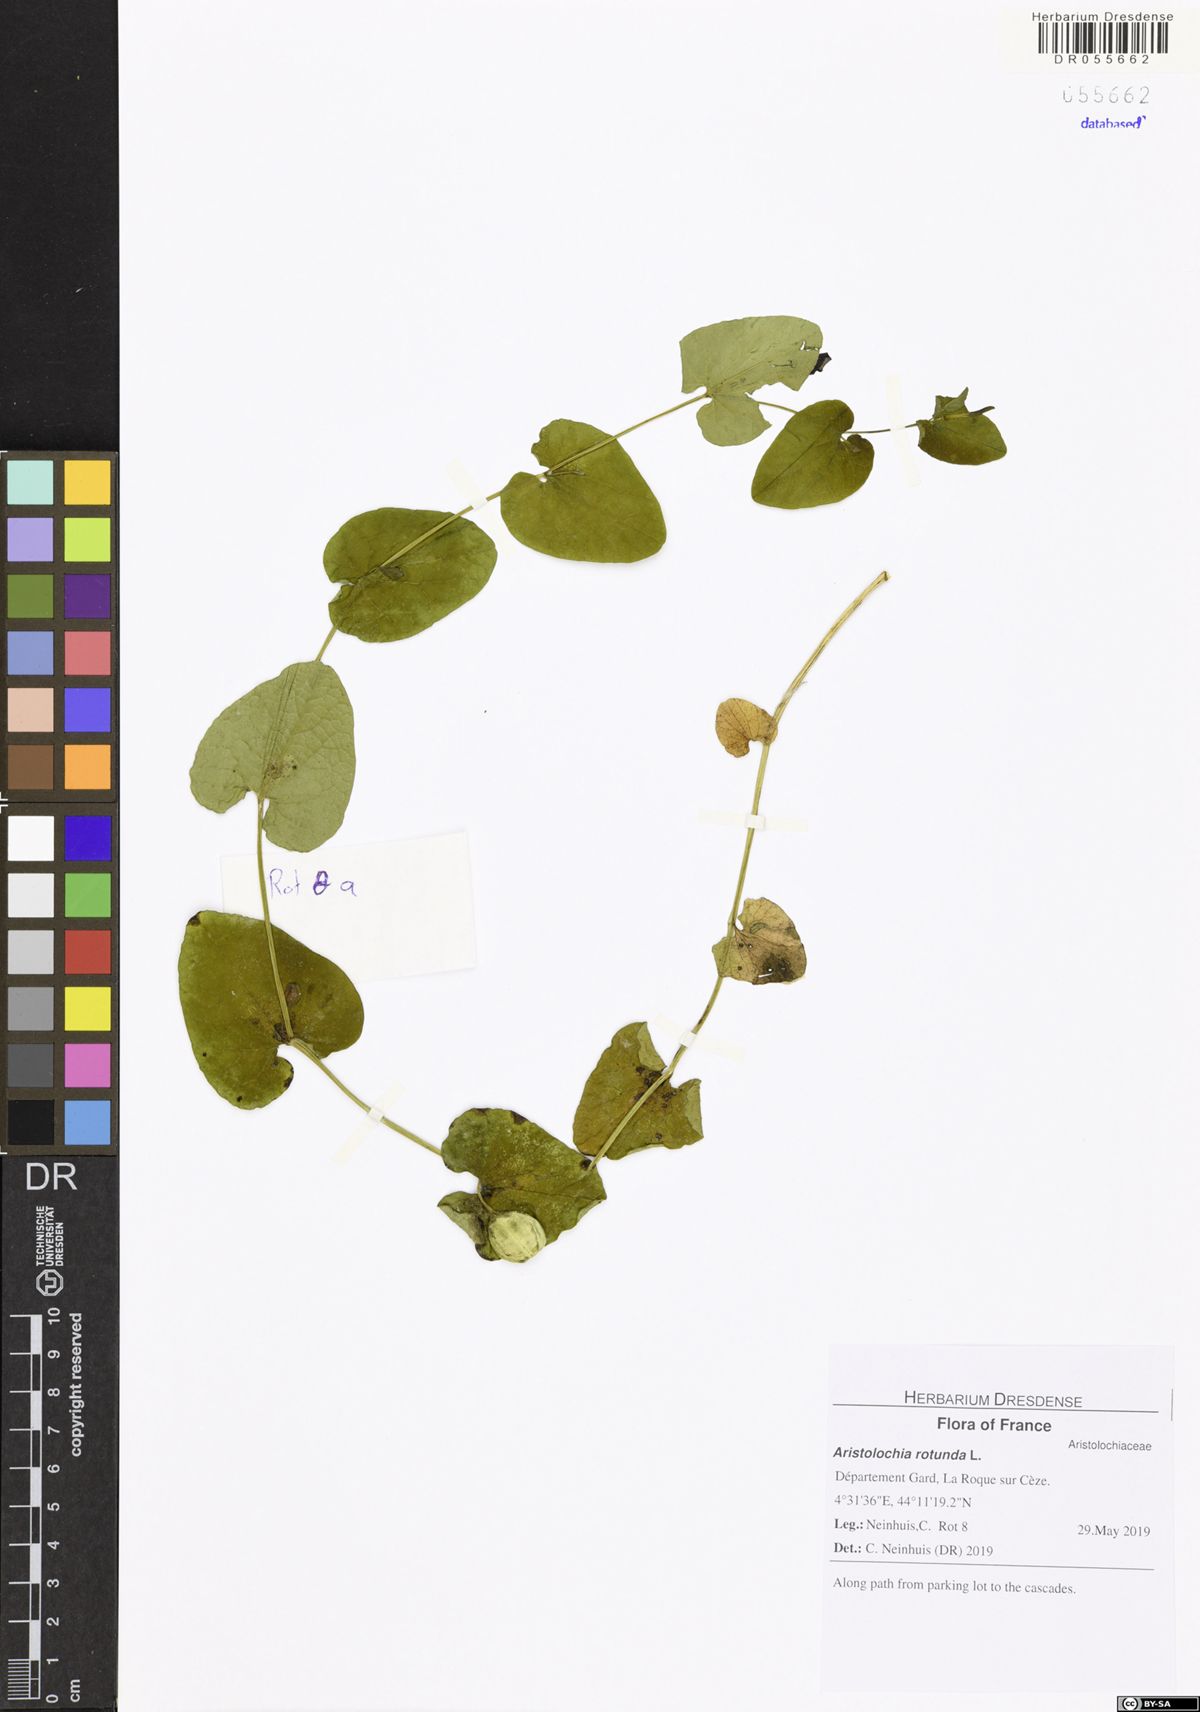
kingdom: Plantae
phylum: Tracheophyta
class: Magnoliopsida
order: Piperales
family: Aristolochiaceae
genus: Aristolochia
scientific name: Aristolochia rotunda
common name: Smearwort
